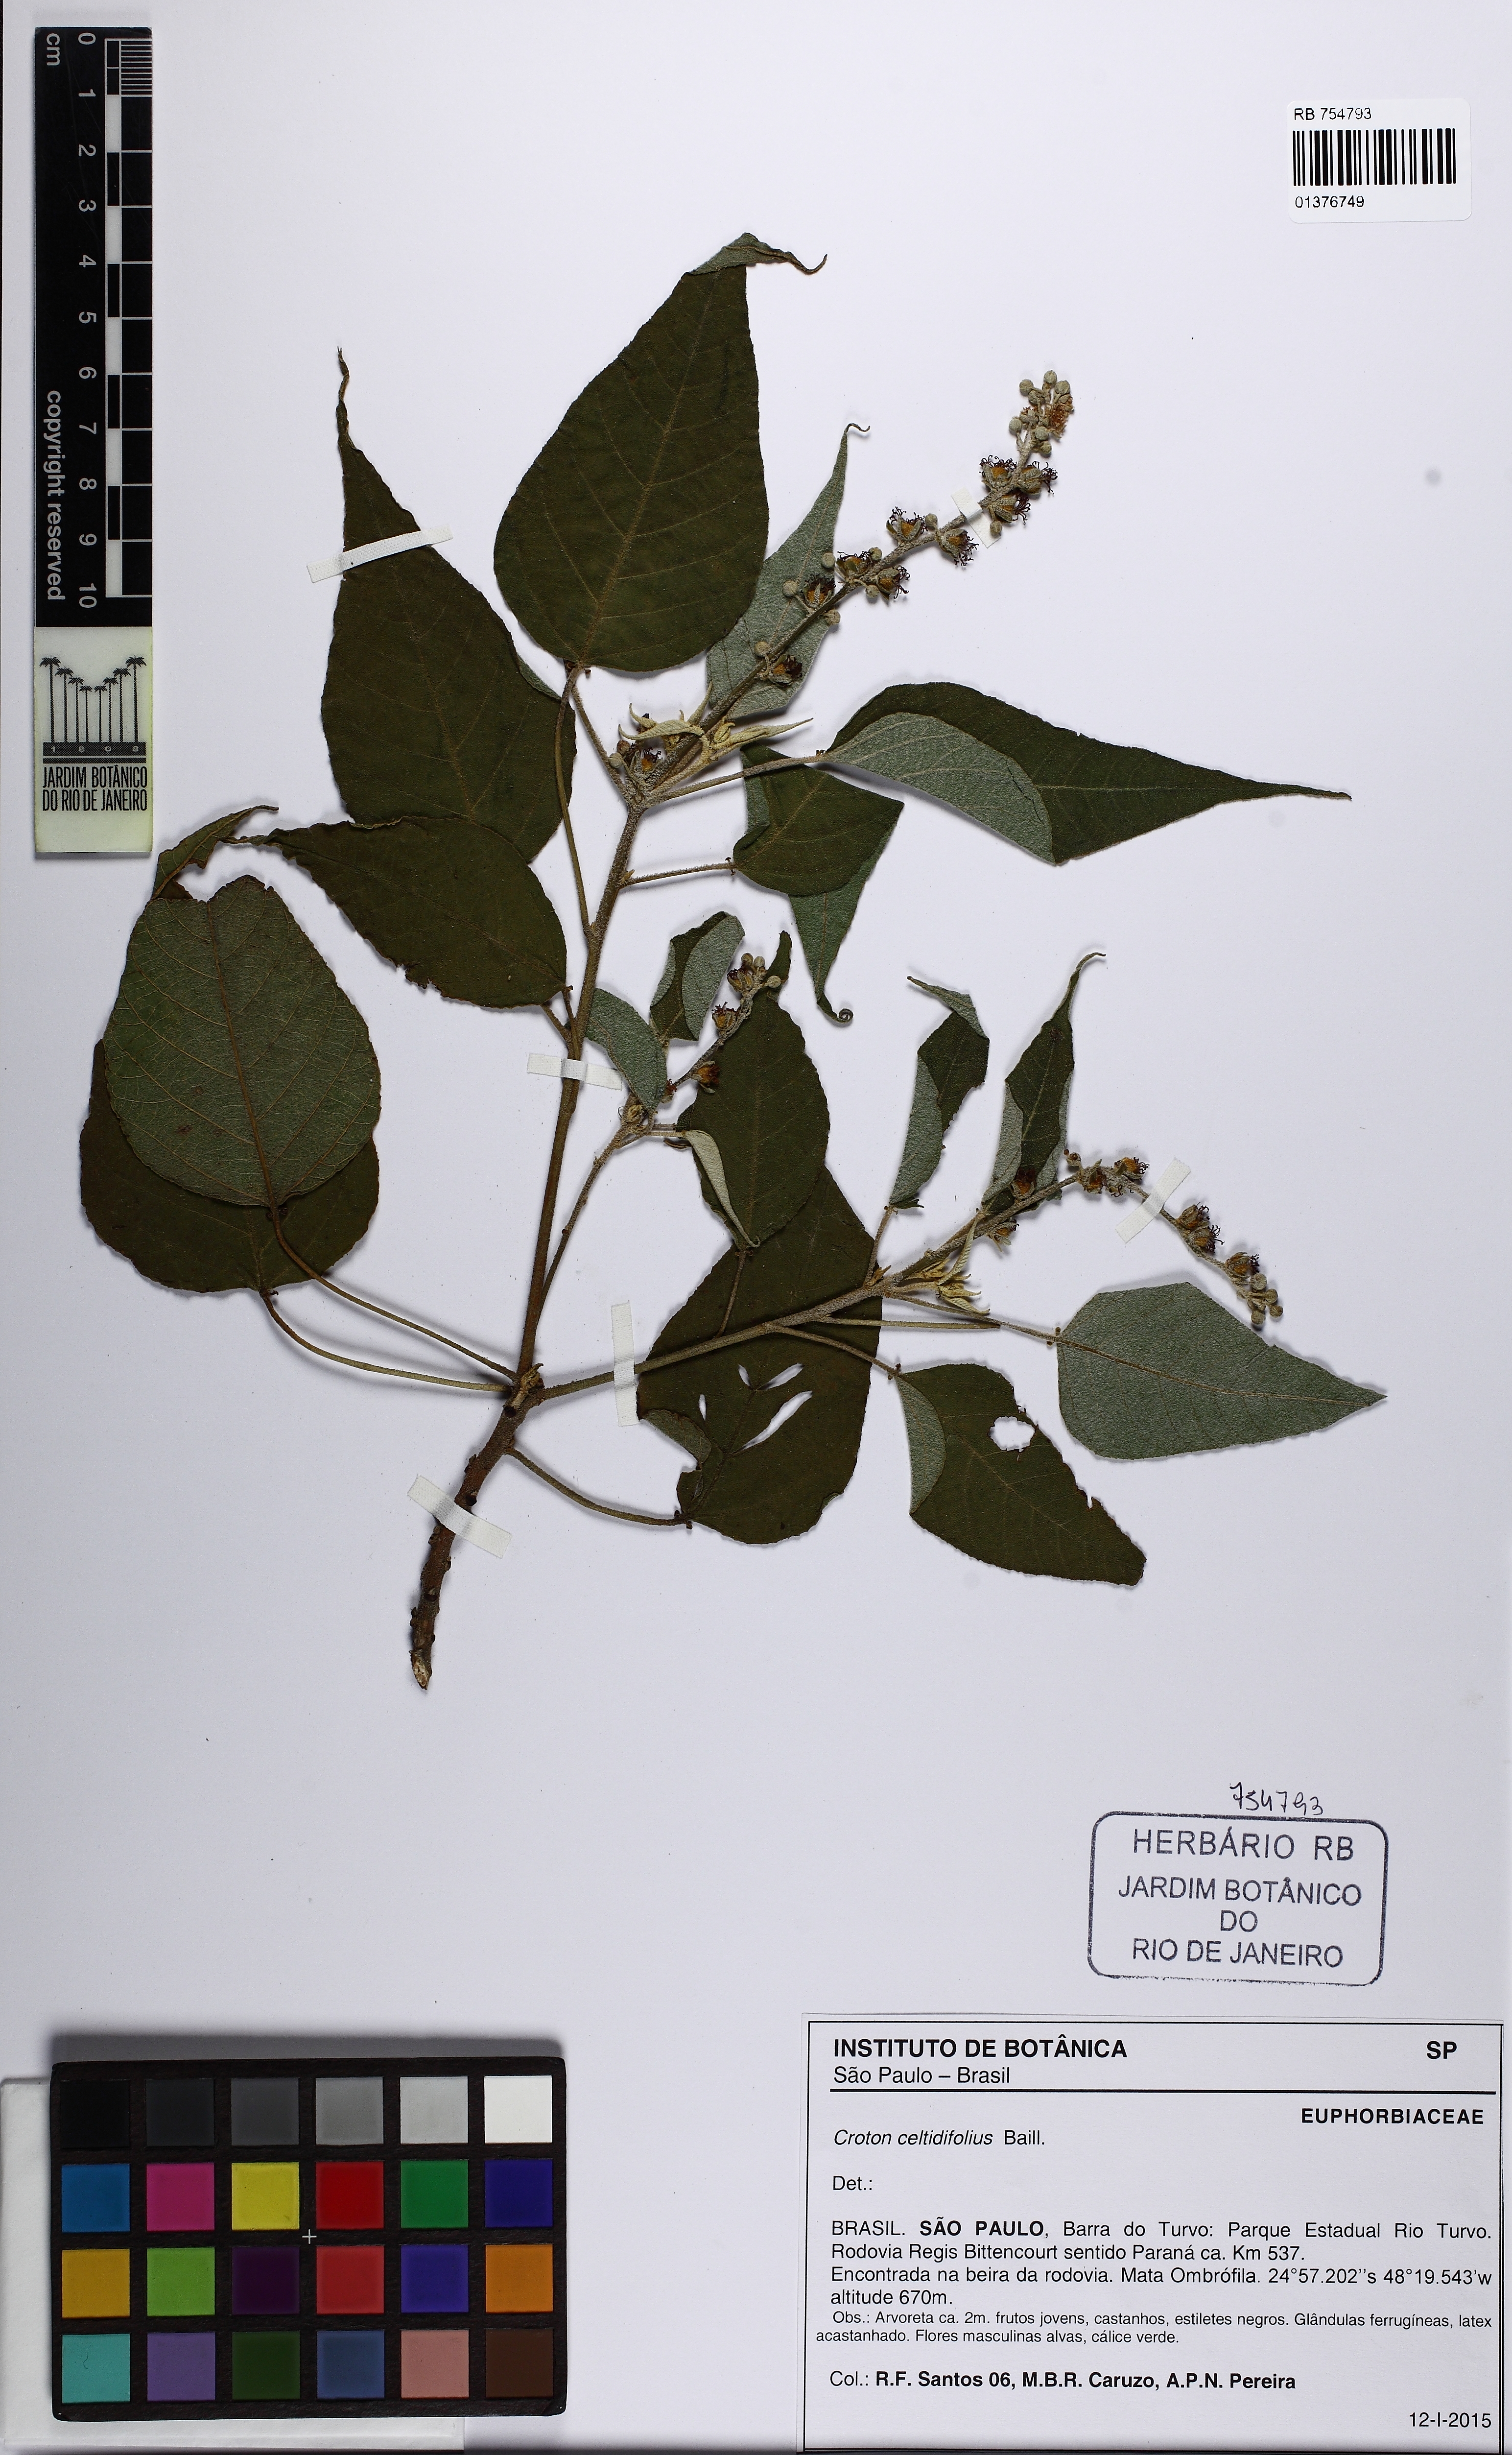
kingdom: Plantae
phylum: Tracheophyta
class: Magnoliopsida
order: Malpighiales
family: Euphorbiaceae
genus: Croton
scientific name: Croton celtidifolius
